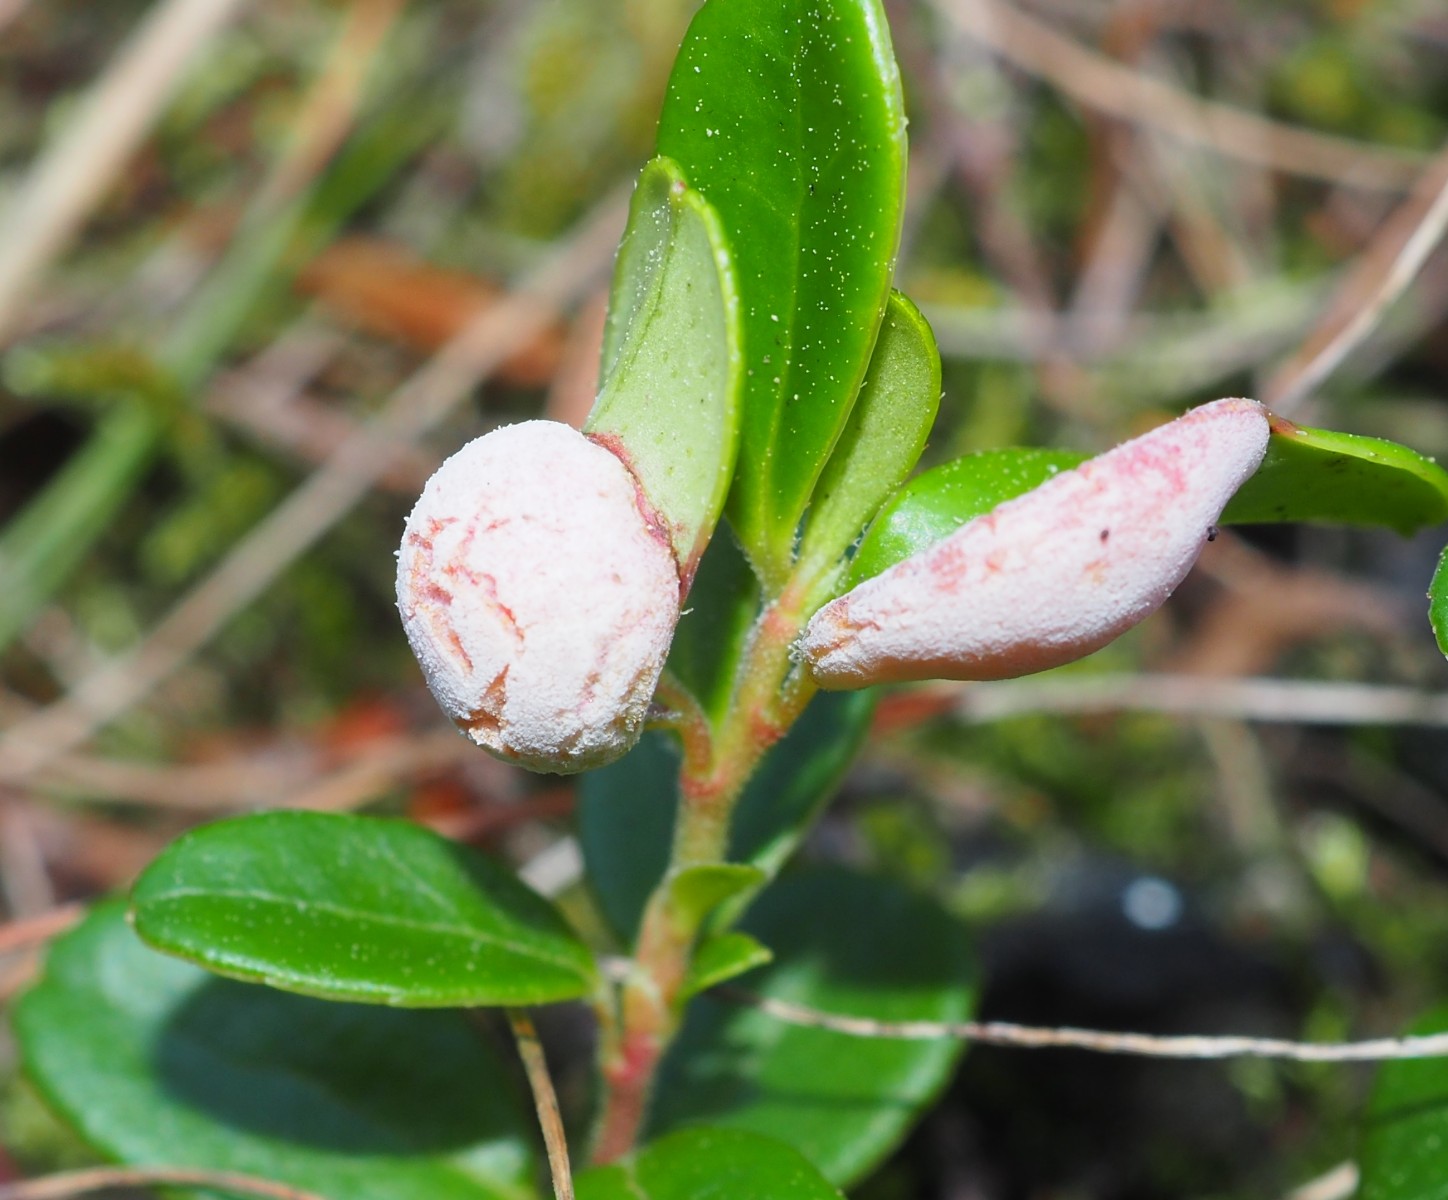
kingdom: Fungi
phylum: Basidiomycota
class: Exobasidiomycetes
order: Exobasidiales
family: Exobasidiaceae
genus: Exobasidium
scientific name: Exobasidium vaccinii
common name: tyttebærblad-bøllesvamp
